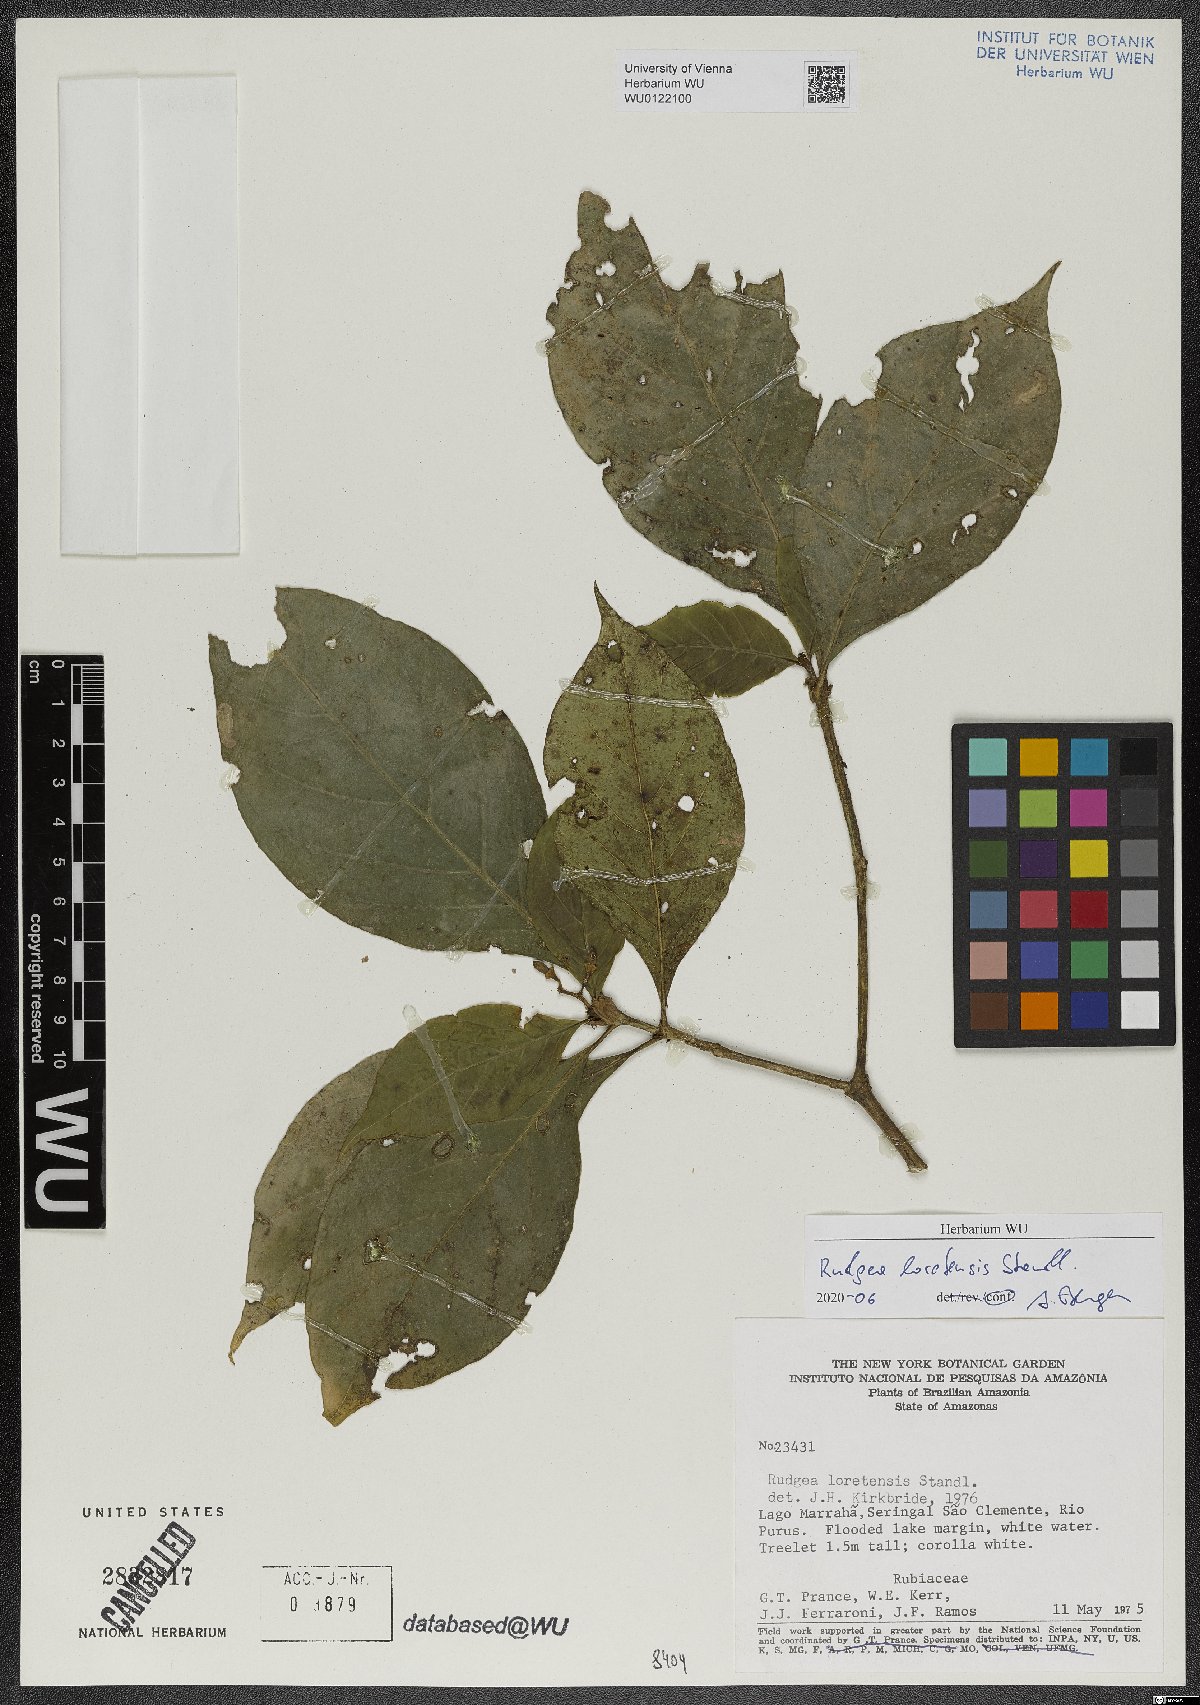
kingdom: Plantae
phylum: Tracheophyta
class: Magnoliopsida
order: Gentianales
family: Rubiaceae
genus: Rudgea
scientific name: Rudgea loretensis
